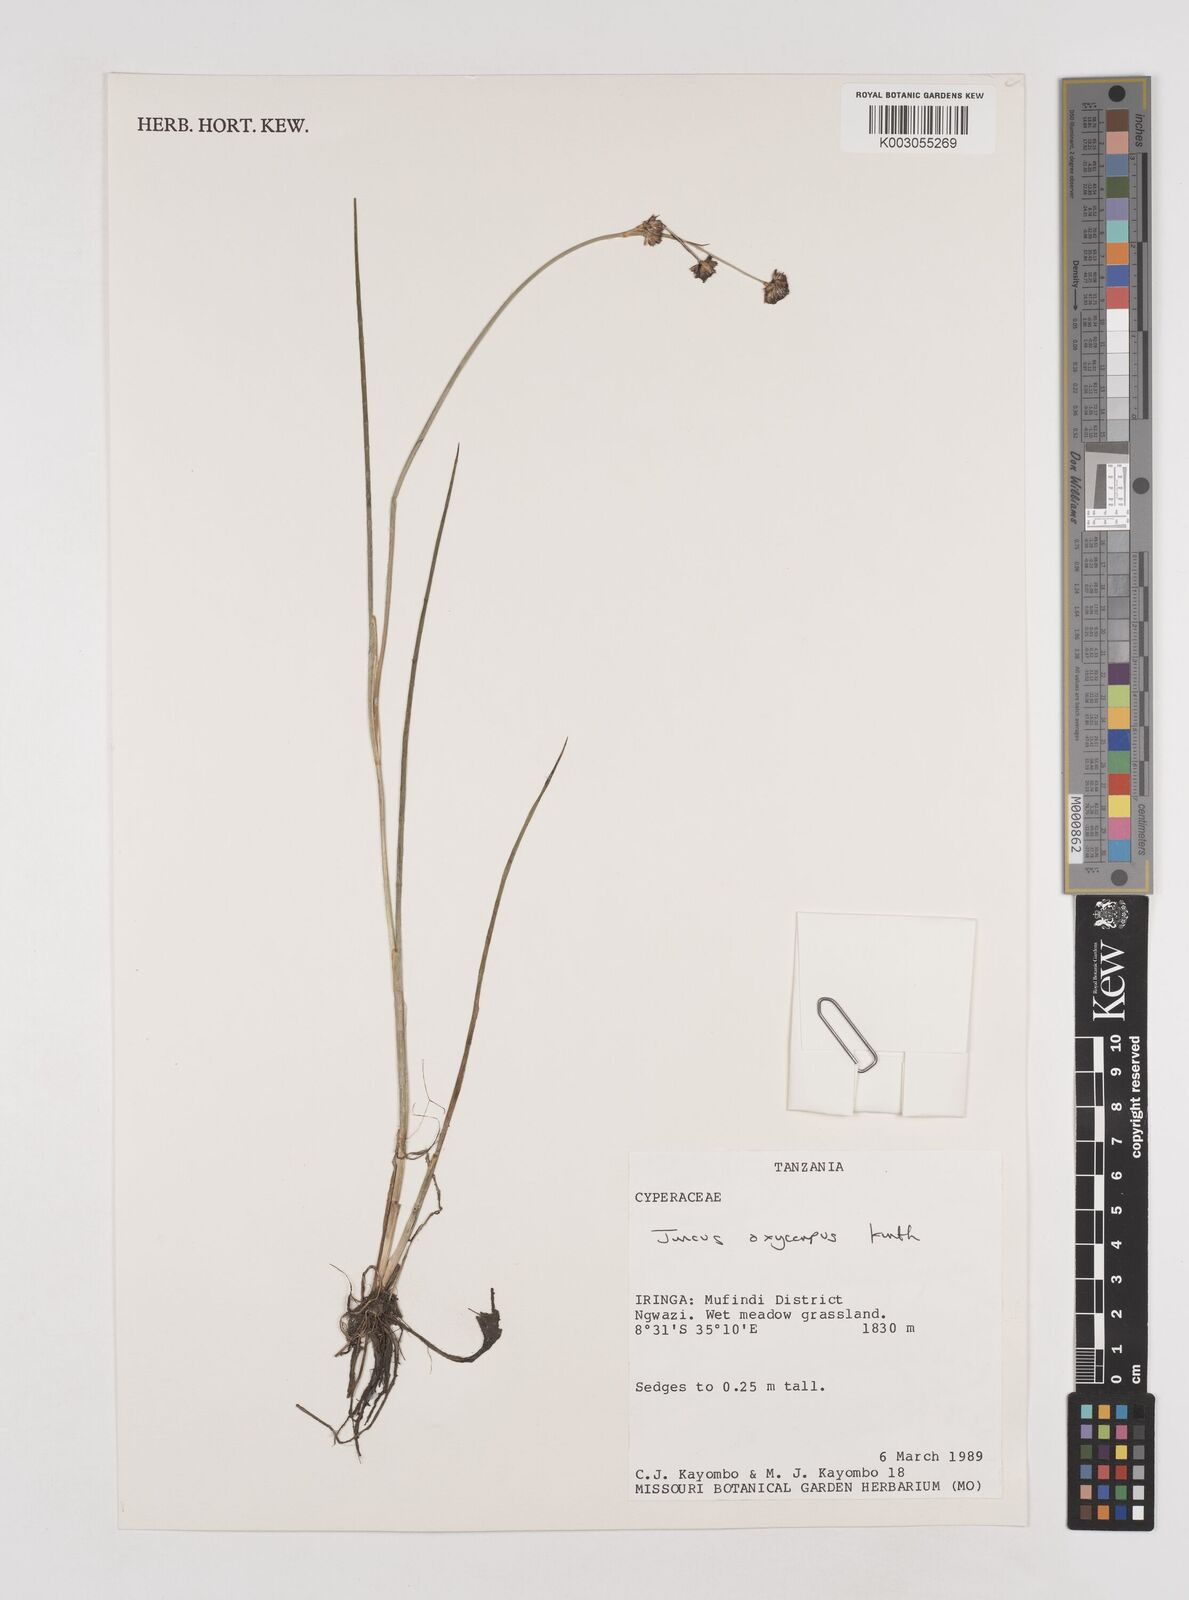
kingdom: Plantae
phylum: Tracheophyta
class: Liliopsida
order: Poales
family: Juncaceae
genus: Juncus
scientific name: Juncus oxycarpus
